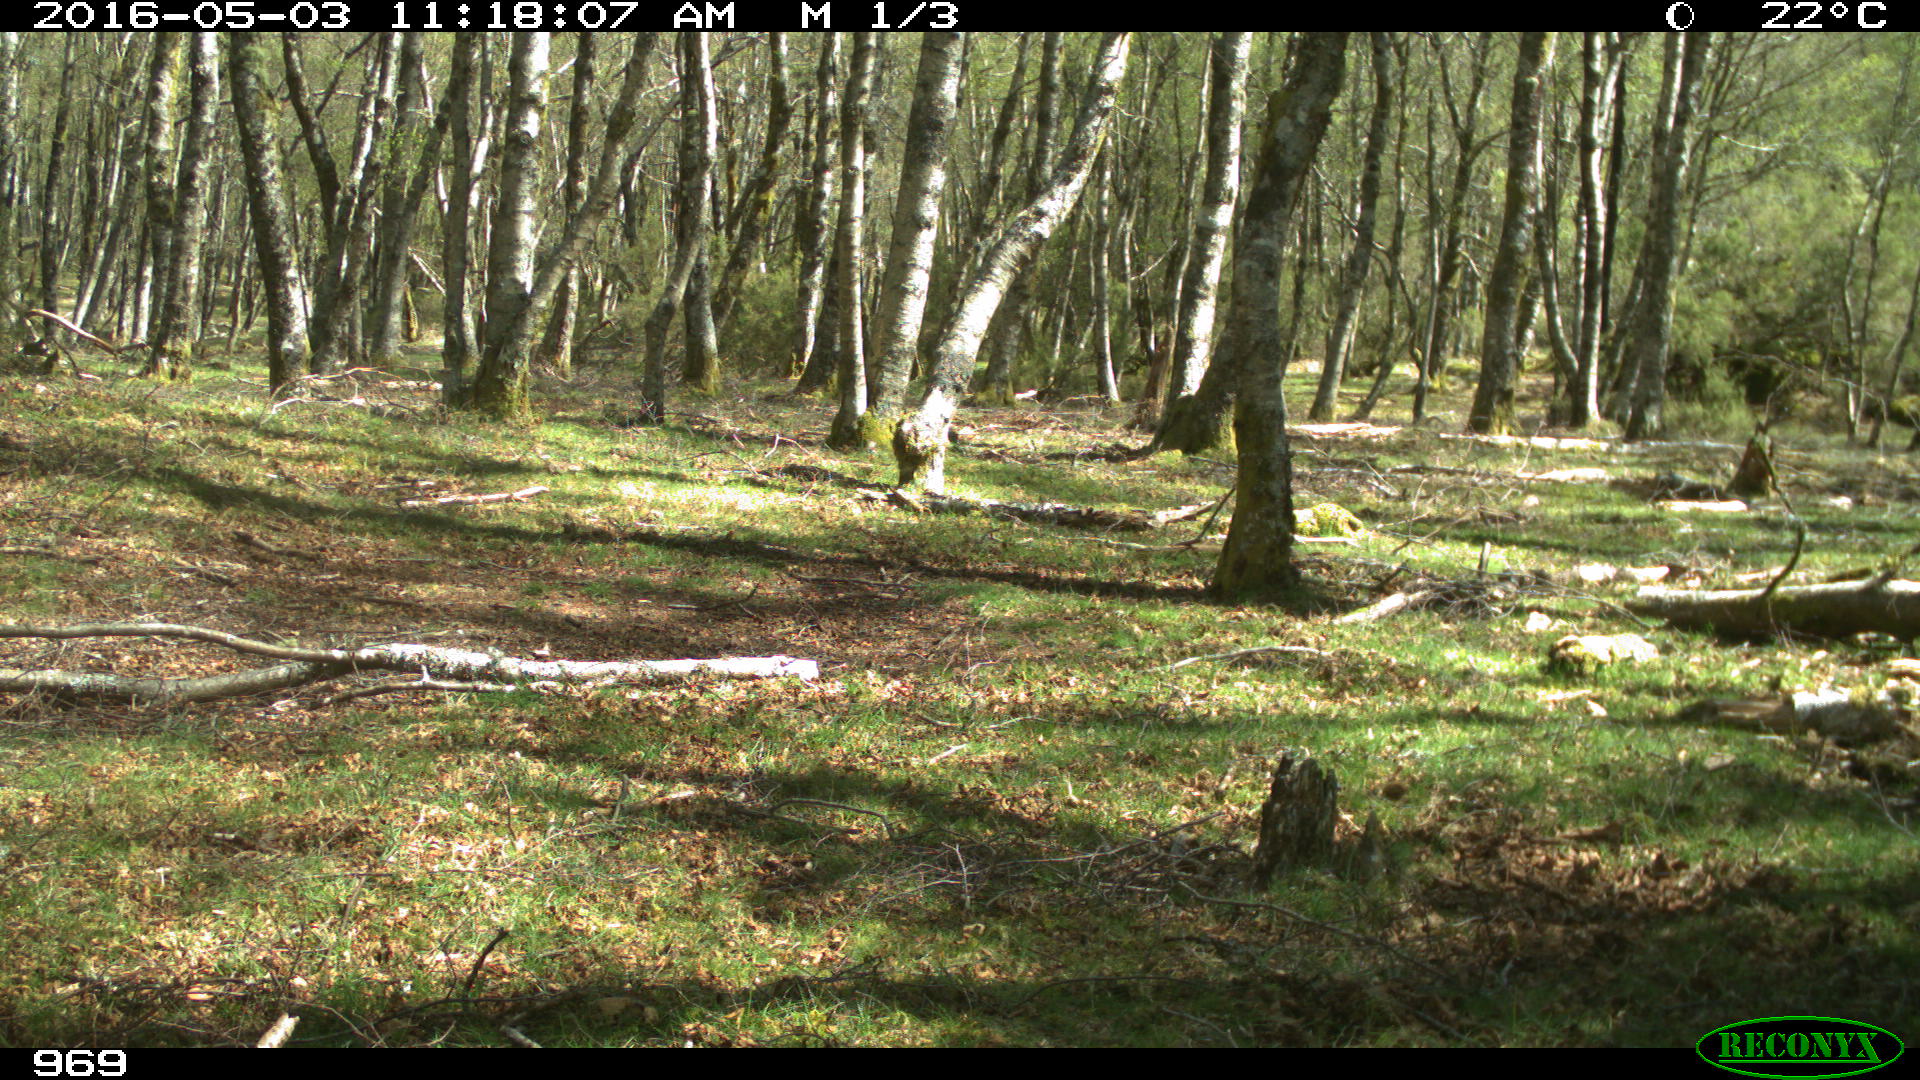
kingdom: Animalia
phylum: Chordata
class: Mammalia
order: Perissodactyla
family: Equidae
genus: Equus
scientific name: Equus caballus
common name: Horse
